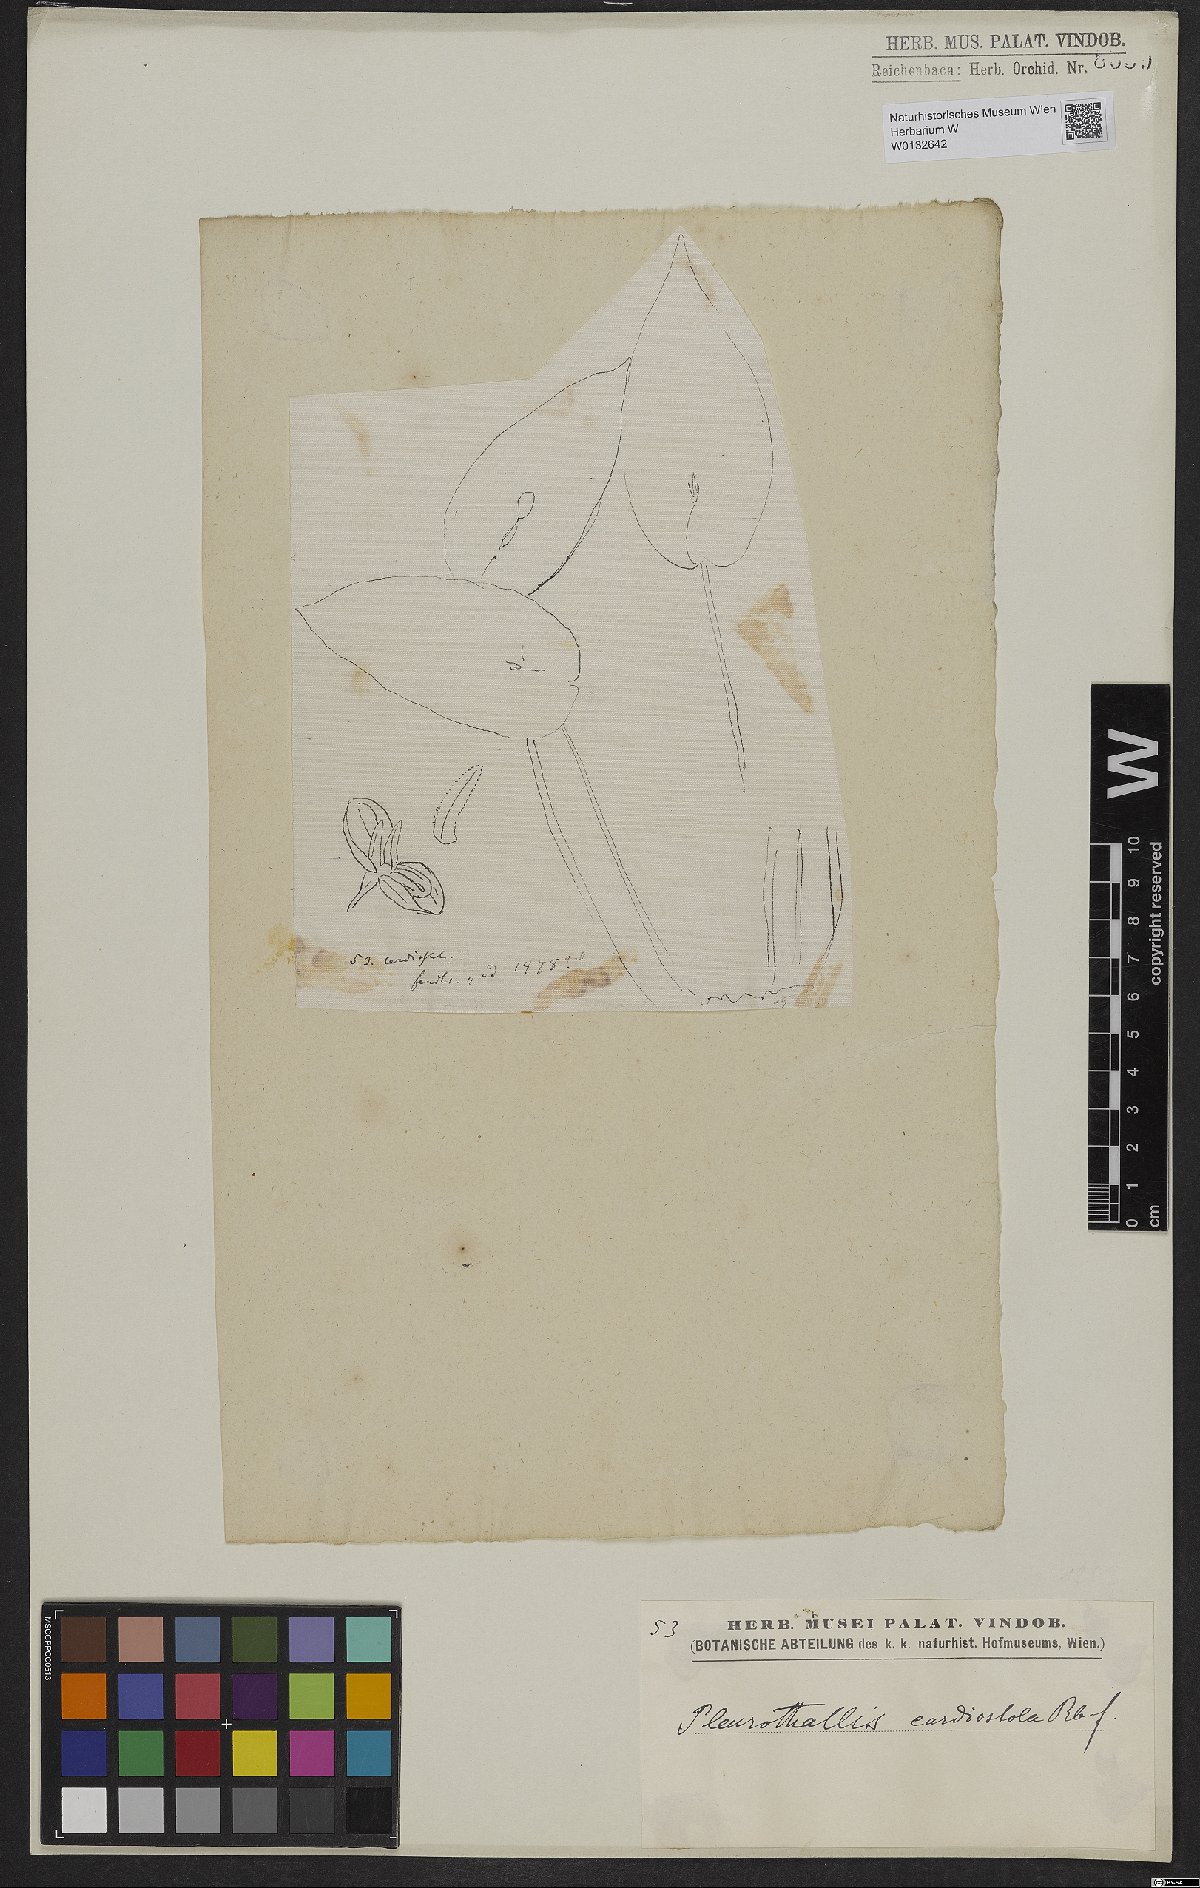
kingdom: Plantae
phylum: Tracheophyta
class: Liliopsida
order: Asparagales
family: Orchidaceae
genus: Pleurothallis
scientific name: Pleurothallis cardiostola
